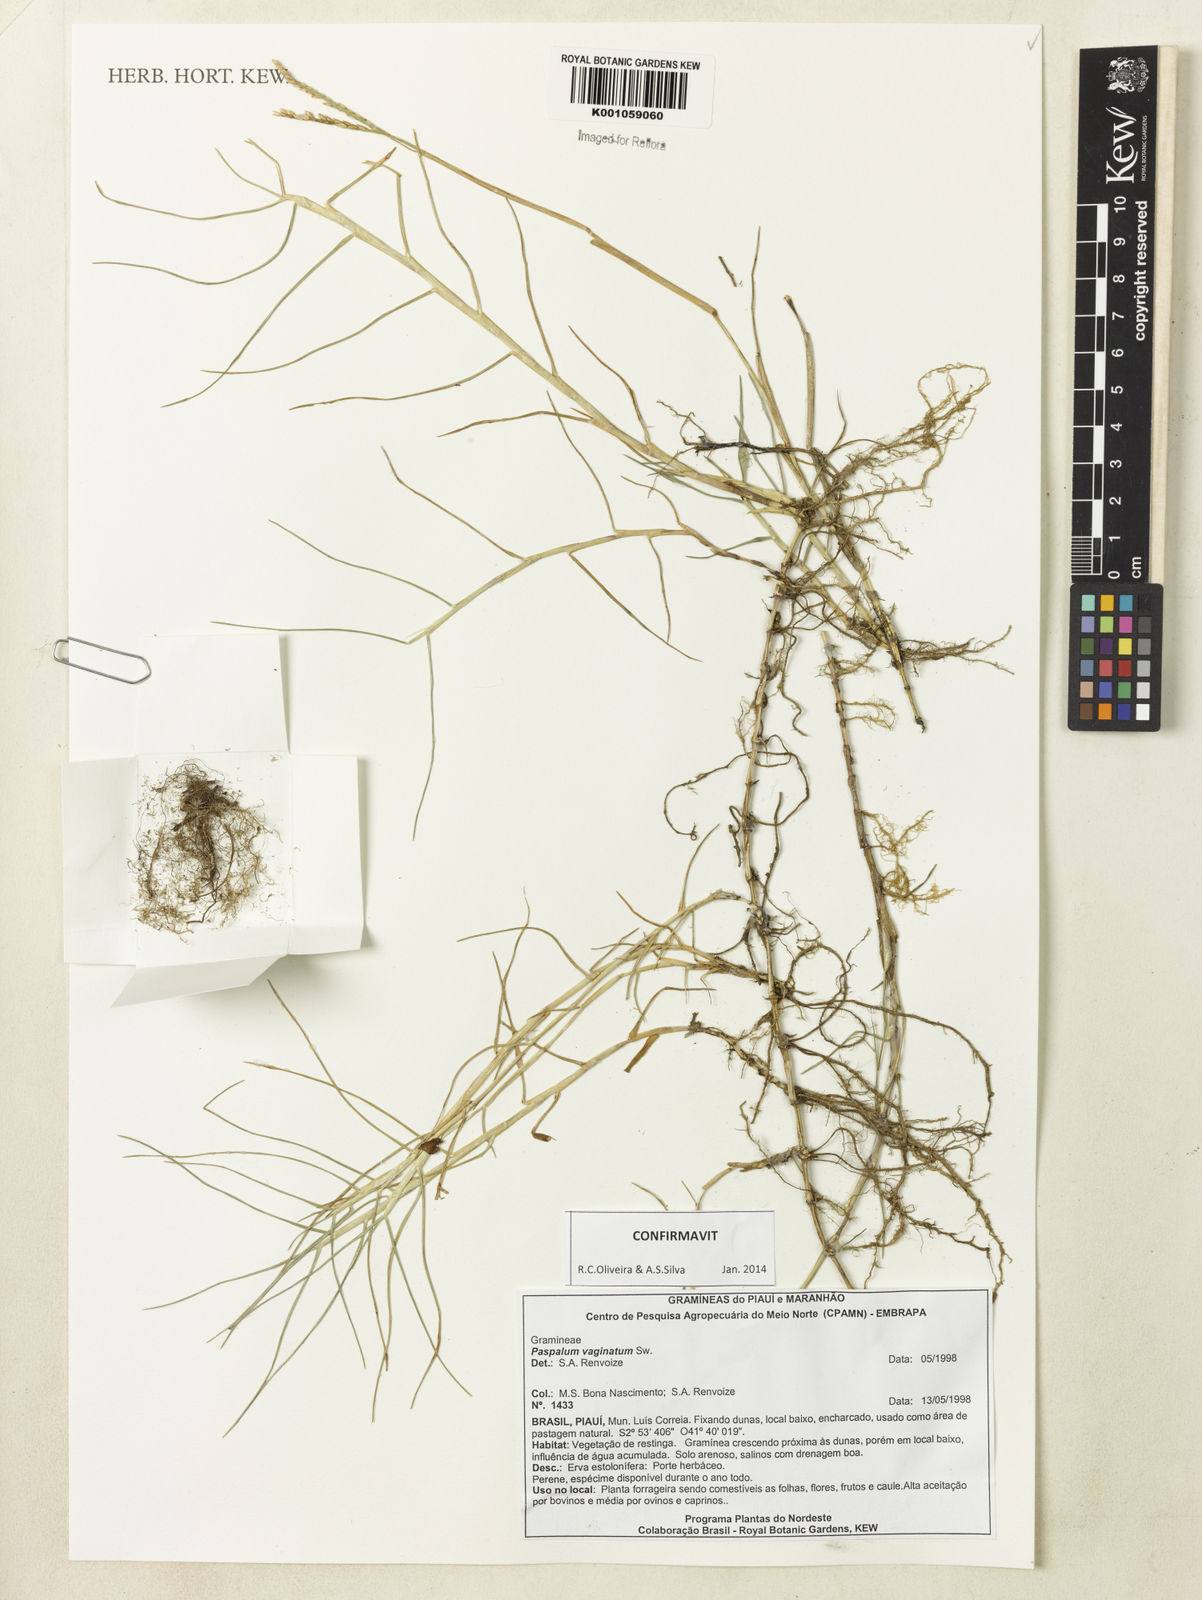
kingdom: Plantae
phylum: Tracheophyta
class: Liliopsida
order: Poales
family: Poaceae
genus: Paspalum
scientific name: Paspalum vaginatum
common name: Seashore paspalum
